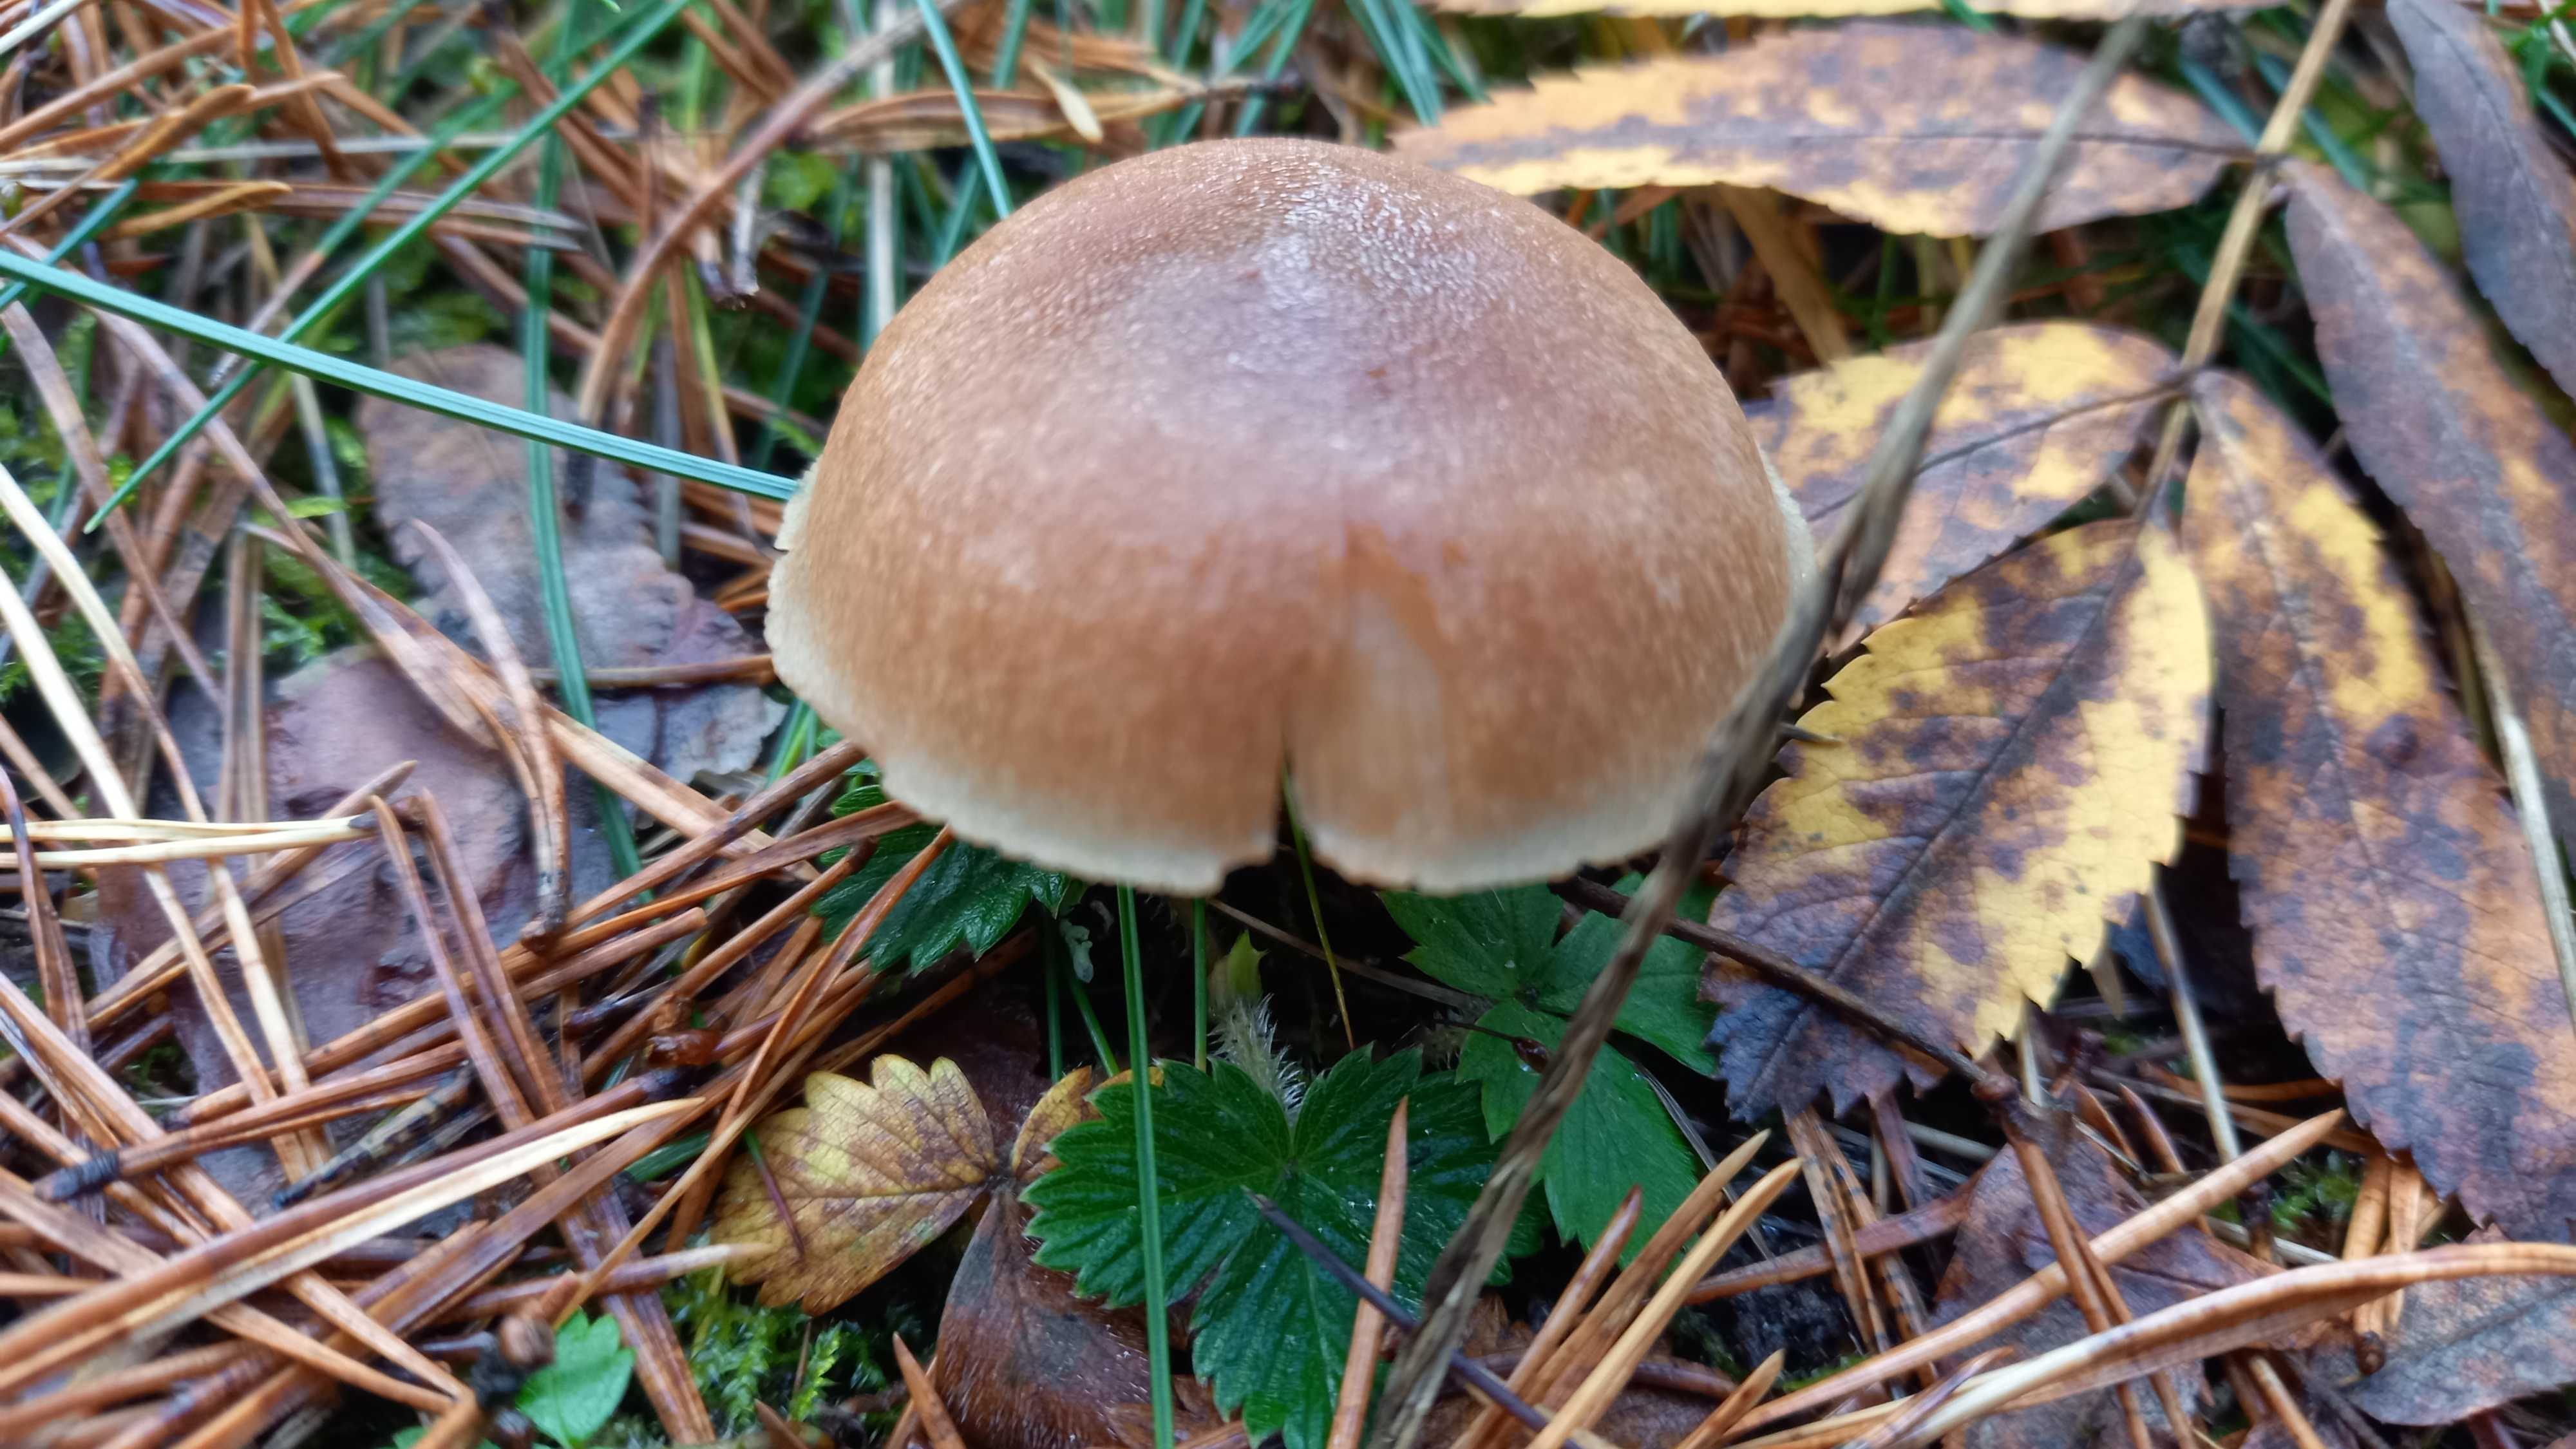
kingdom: Fungi
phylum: Basidiomycota
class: Agaricomycetes
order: Agaricales
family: Omphalotaceae
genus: Collybiopsis
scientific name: Collybiopsis peronata
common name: bestøvlet fladhat
